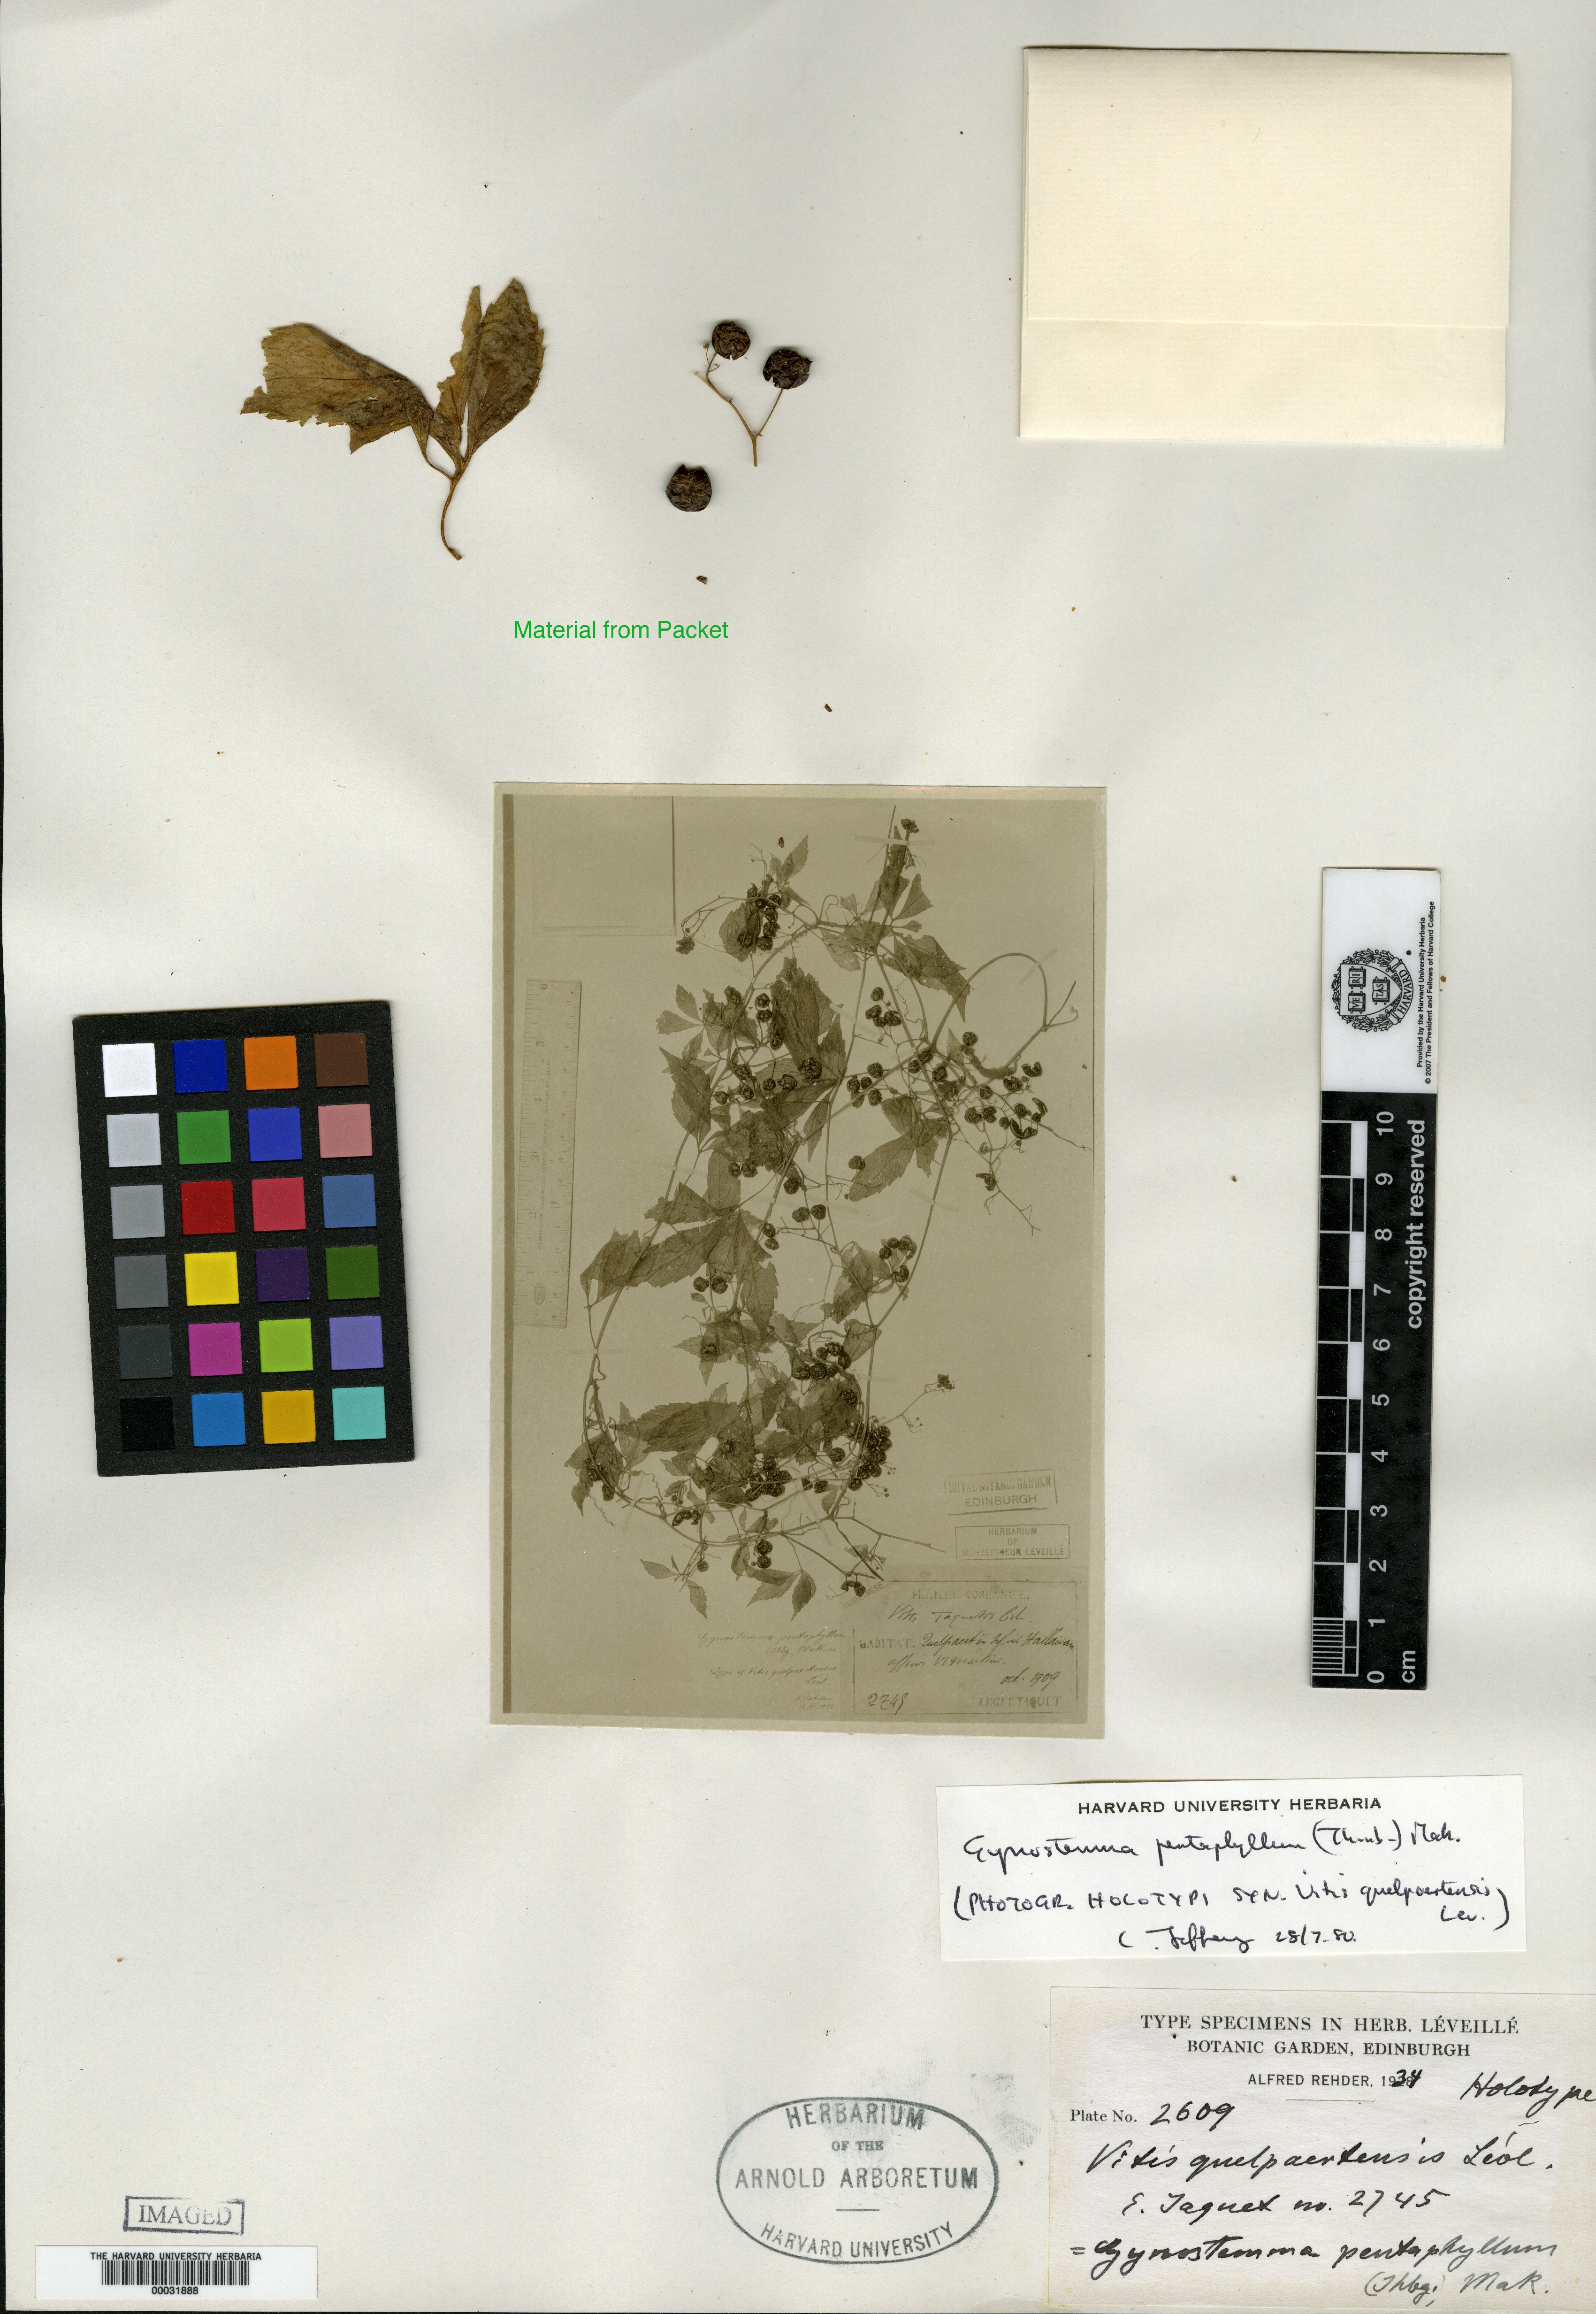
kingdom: Plantae
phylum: Tracheophyta
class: Magnoliopsida
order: Cucurbitales
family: Cucurbitaceae
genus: Gynostemma
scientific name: Gynostemma pentaphyllum
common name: Gynostemma
